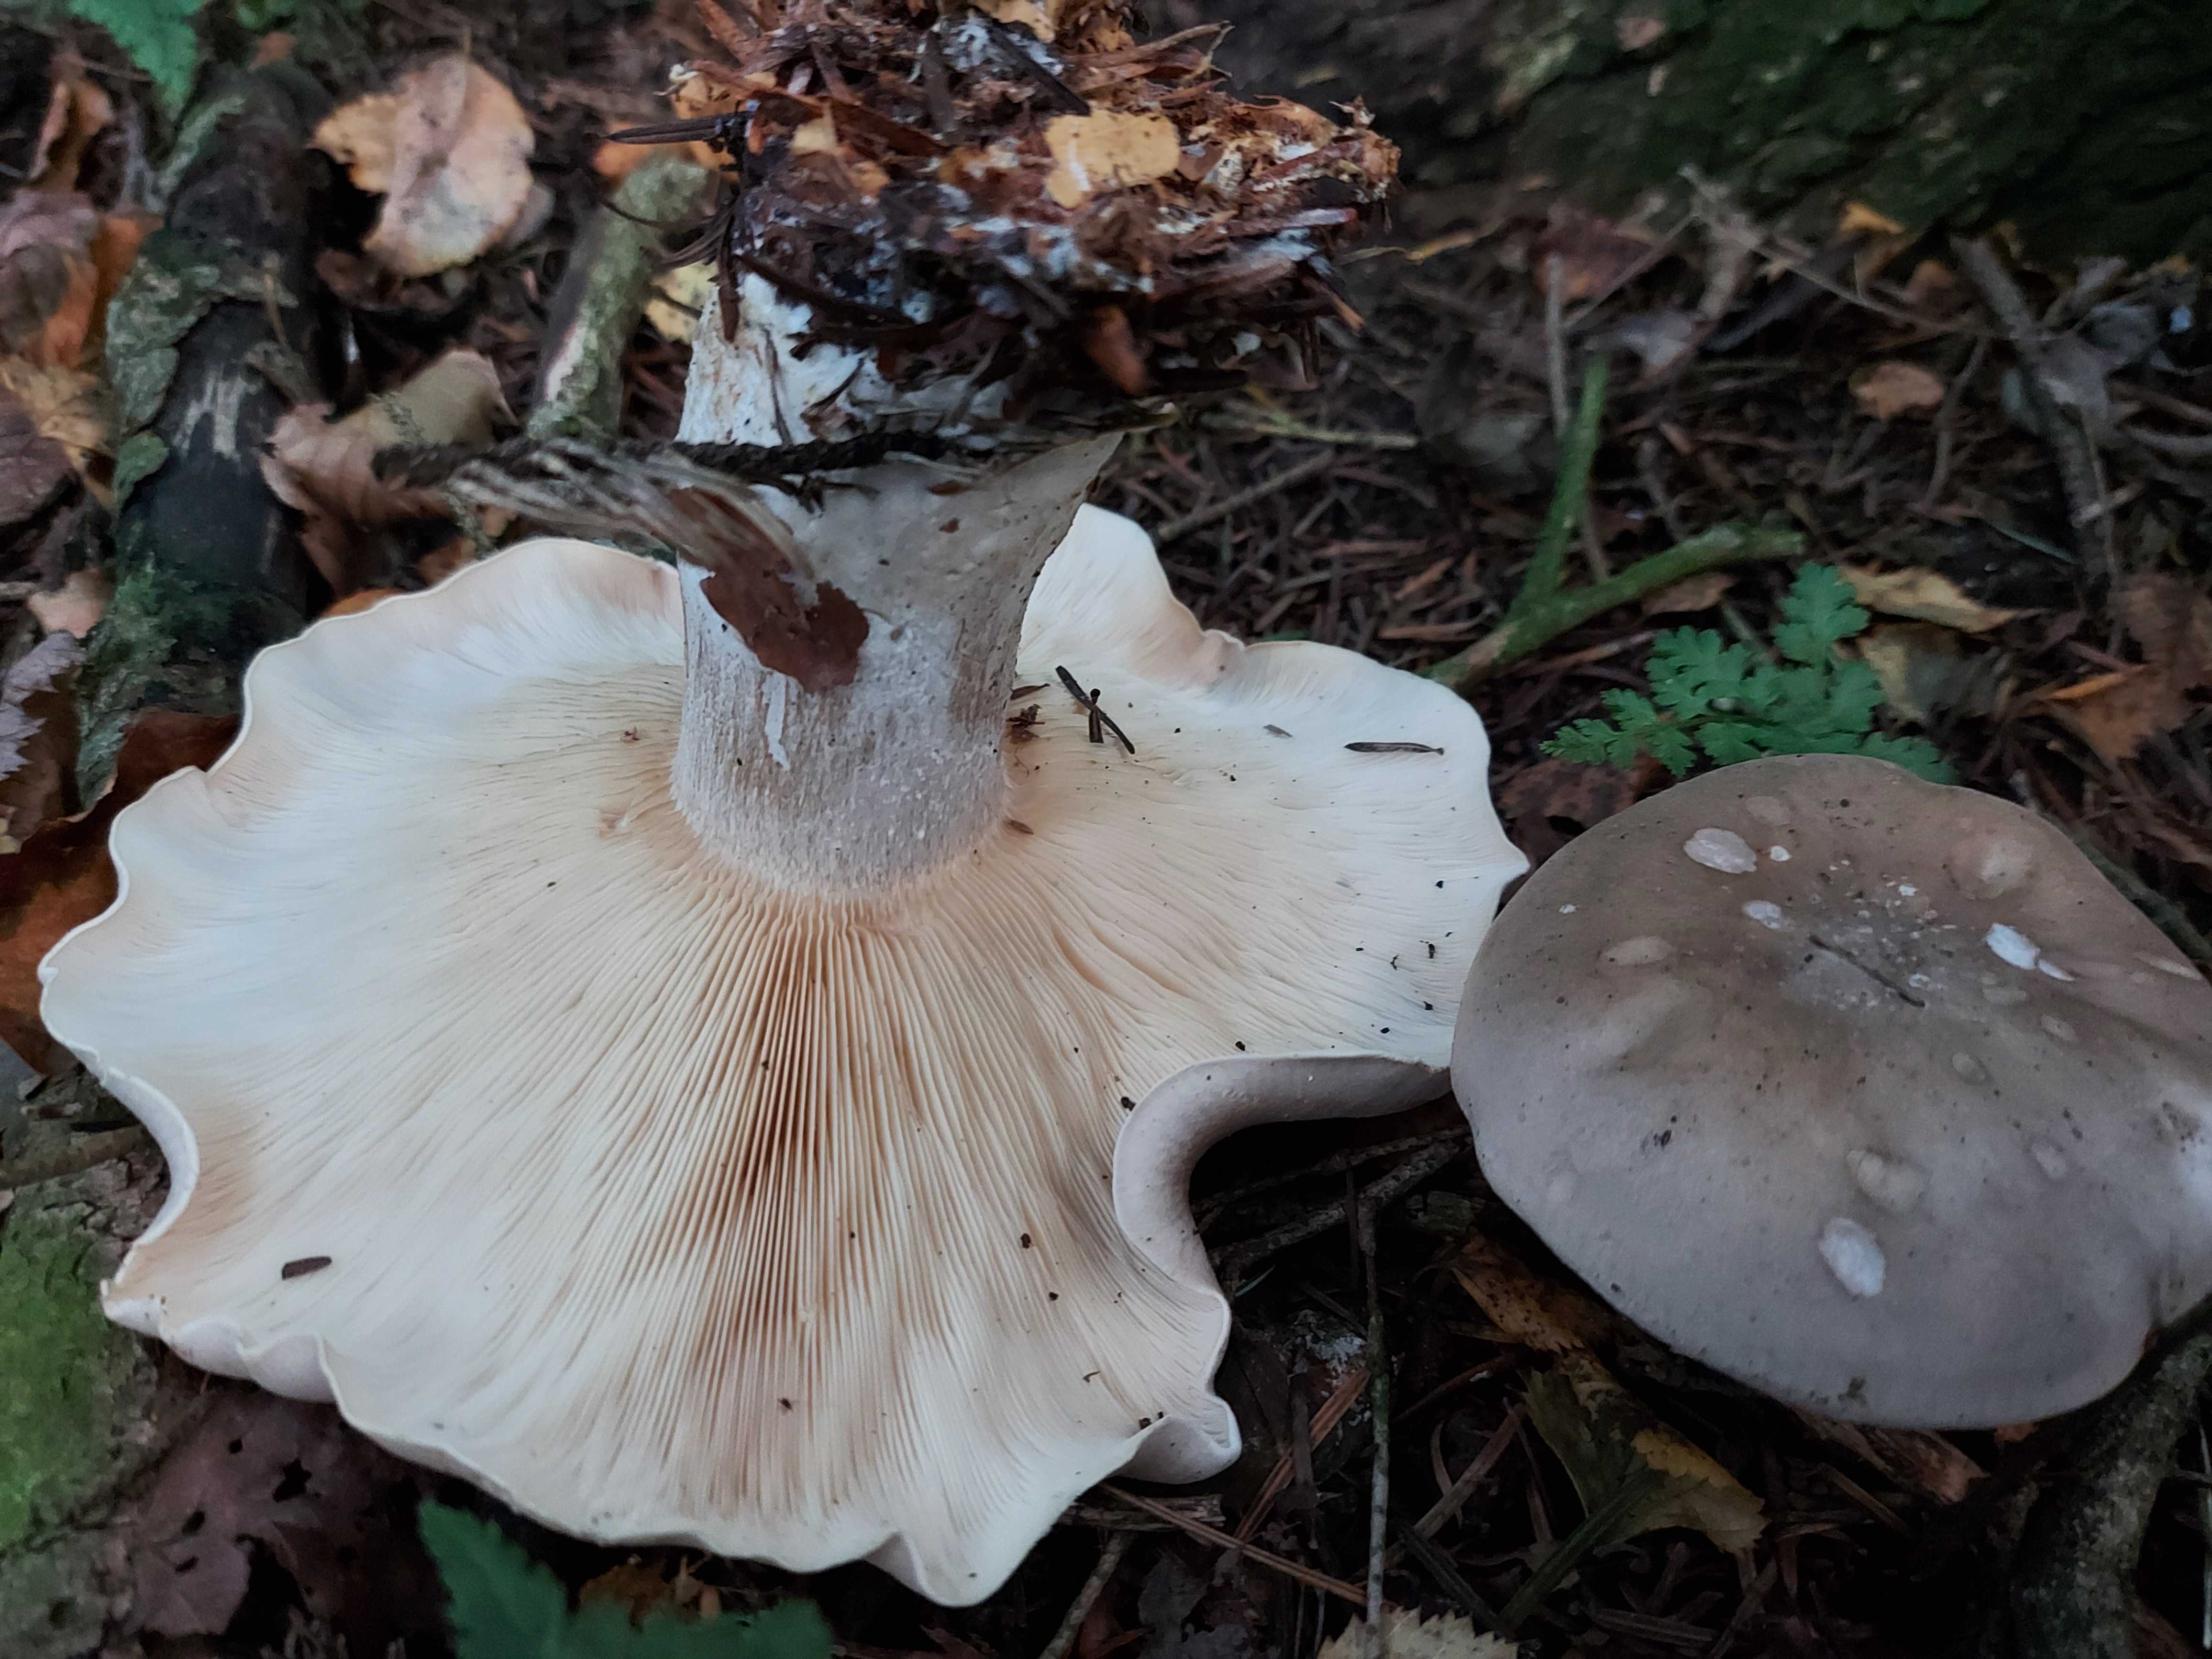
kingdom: Fungi
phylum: Basidiomycota
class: Agaricomycetes
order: Agaricales
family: Tricholomataceae
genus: Clitocybe
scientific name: Clitocybe nebularis
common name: tåge-tragthat
